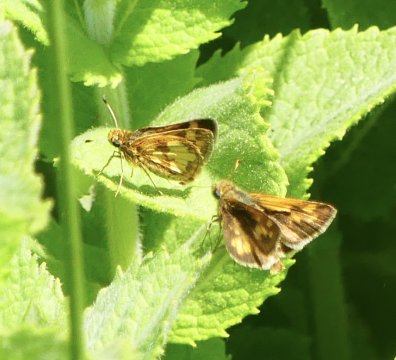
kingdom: Animalia
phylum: Arthropoda
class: Insecta
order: Lepidoptera
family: Hesperiidae
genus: Polites
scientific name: Polites coras
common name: Peck's Skipper
